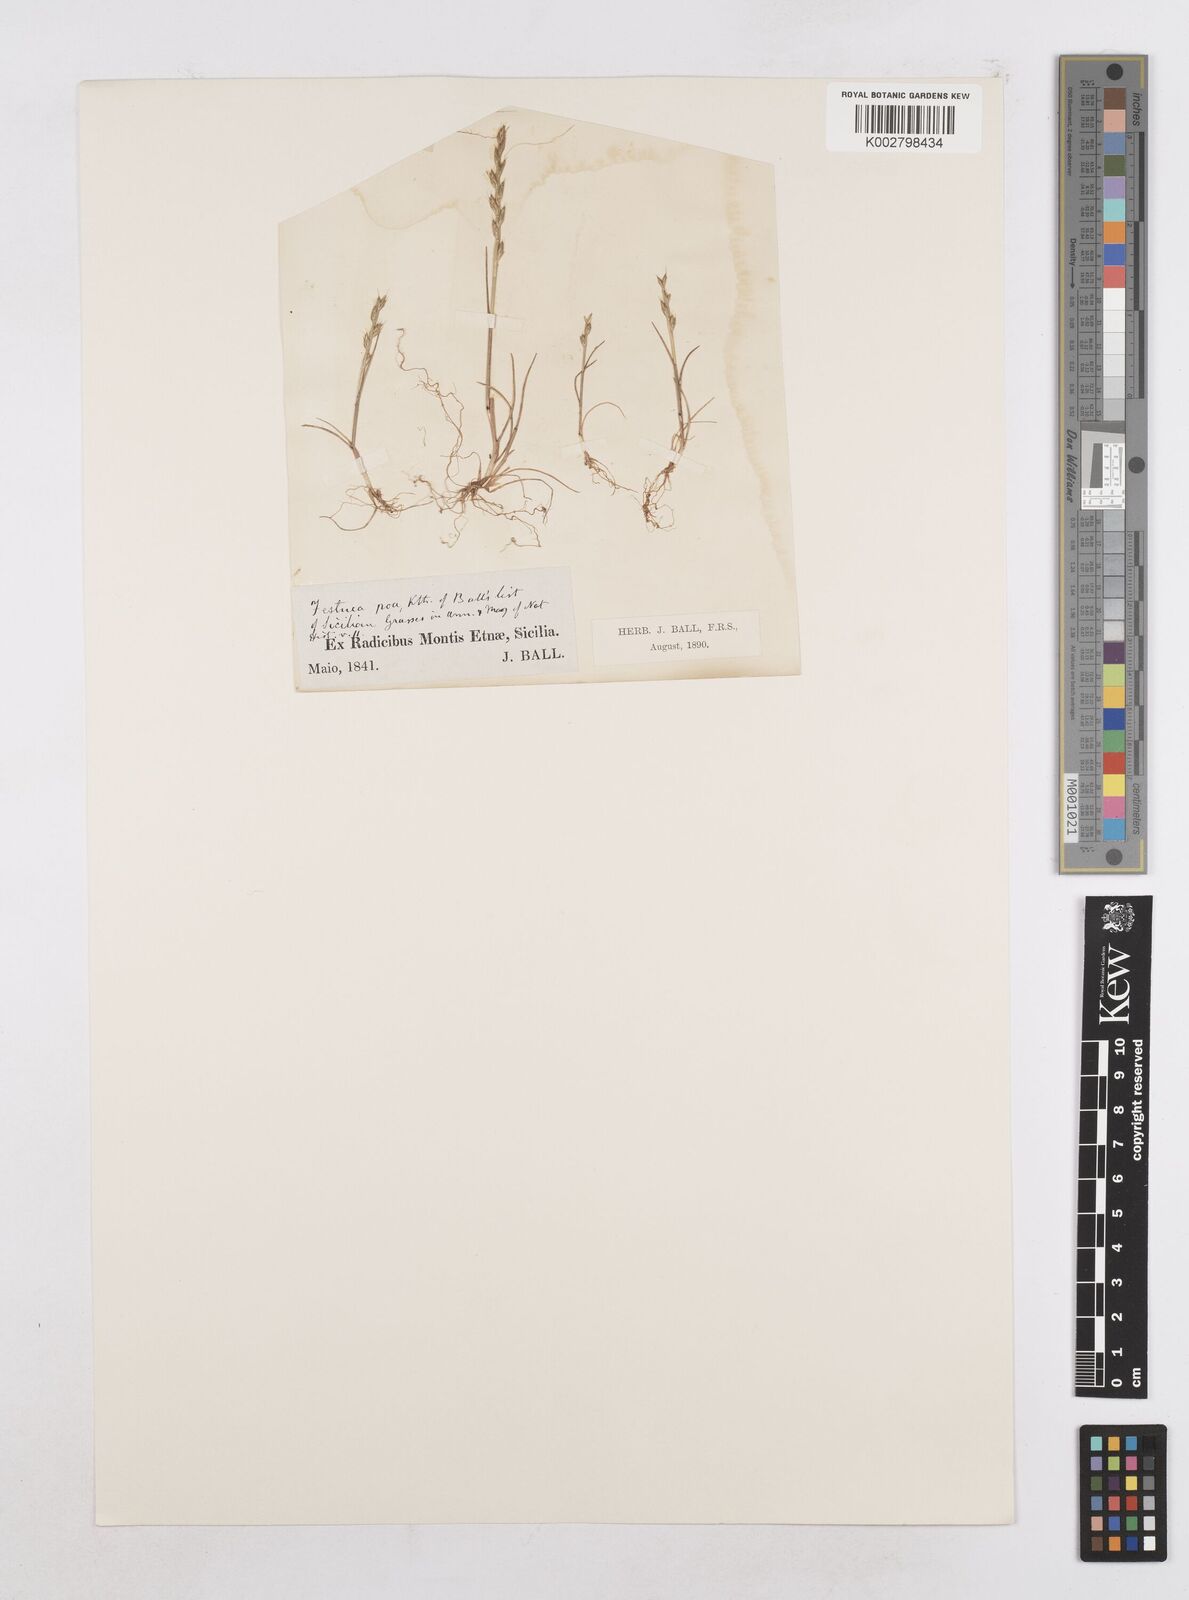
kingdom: Plantae
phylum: Tracheophyta
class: Liliopsida
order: Poales
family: Poaceae
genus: Festuca
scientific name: Festuca lachenalii
